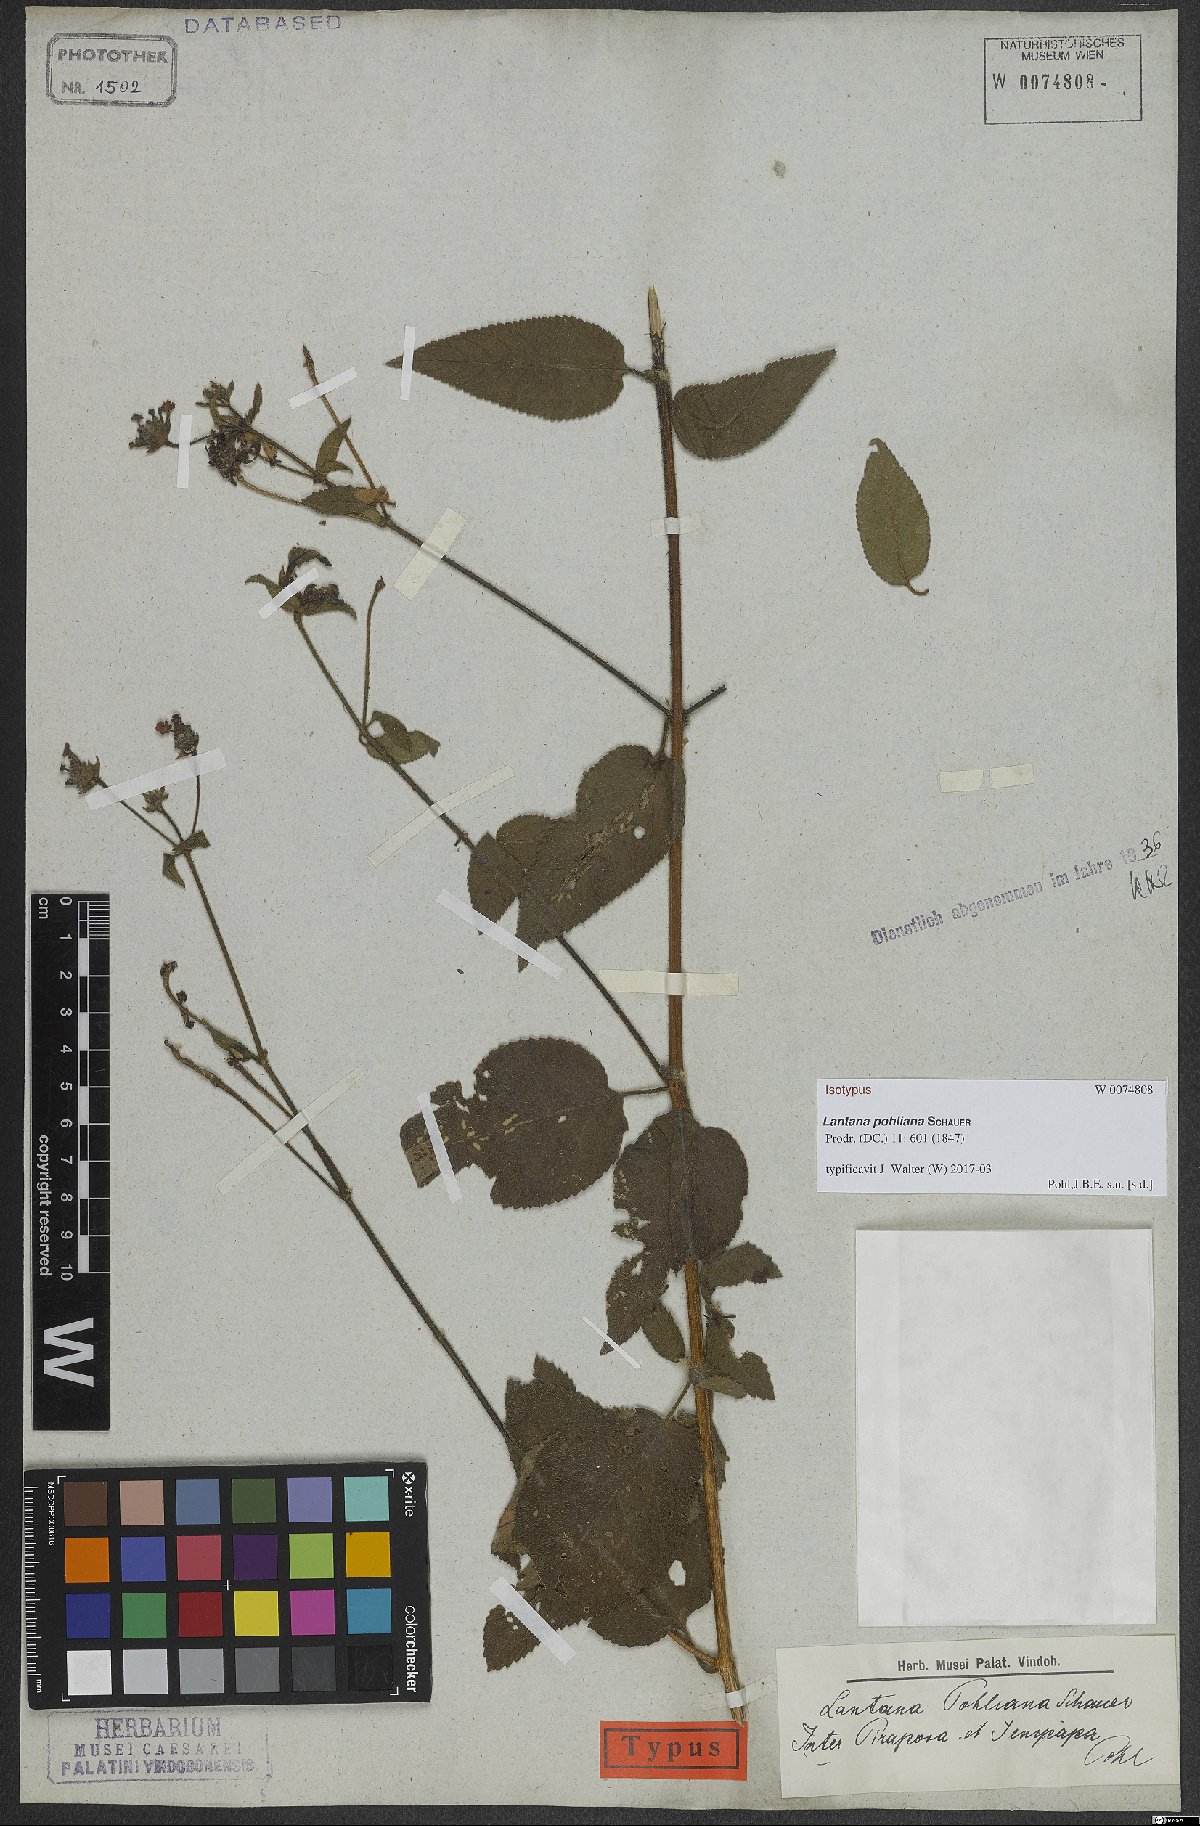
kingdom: Plantae
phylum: Tracheophyta
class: Magnoliopsida
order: Lamiales
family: Verbenaceae
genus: Lantana
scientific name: Lantana pohliana
